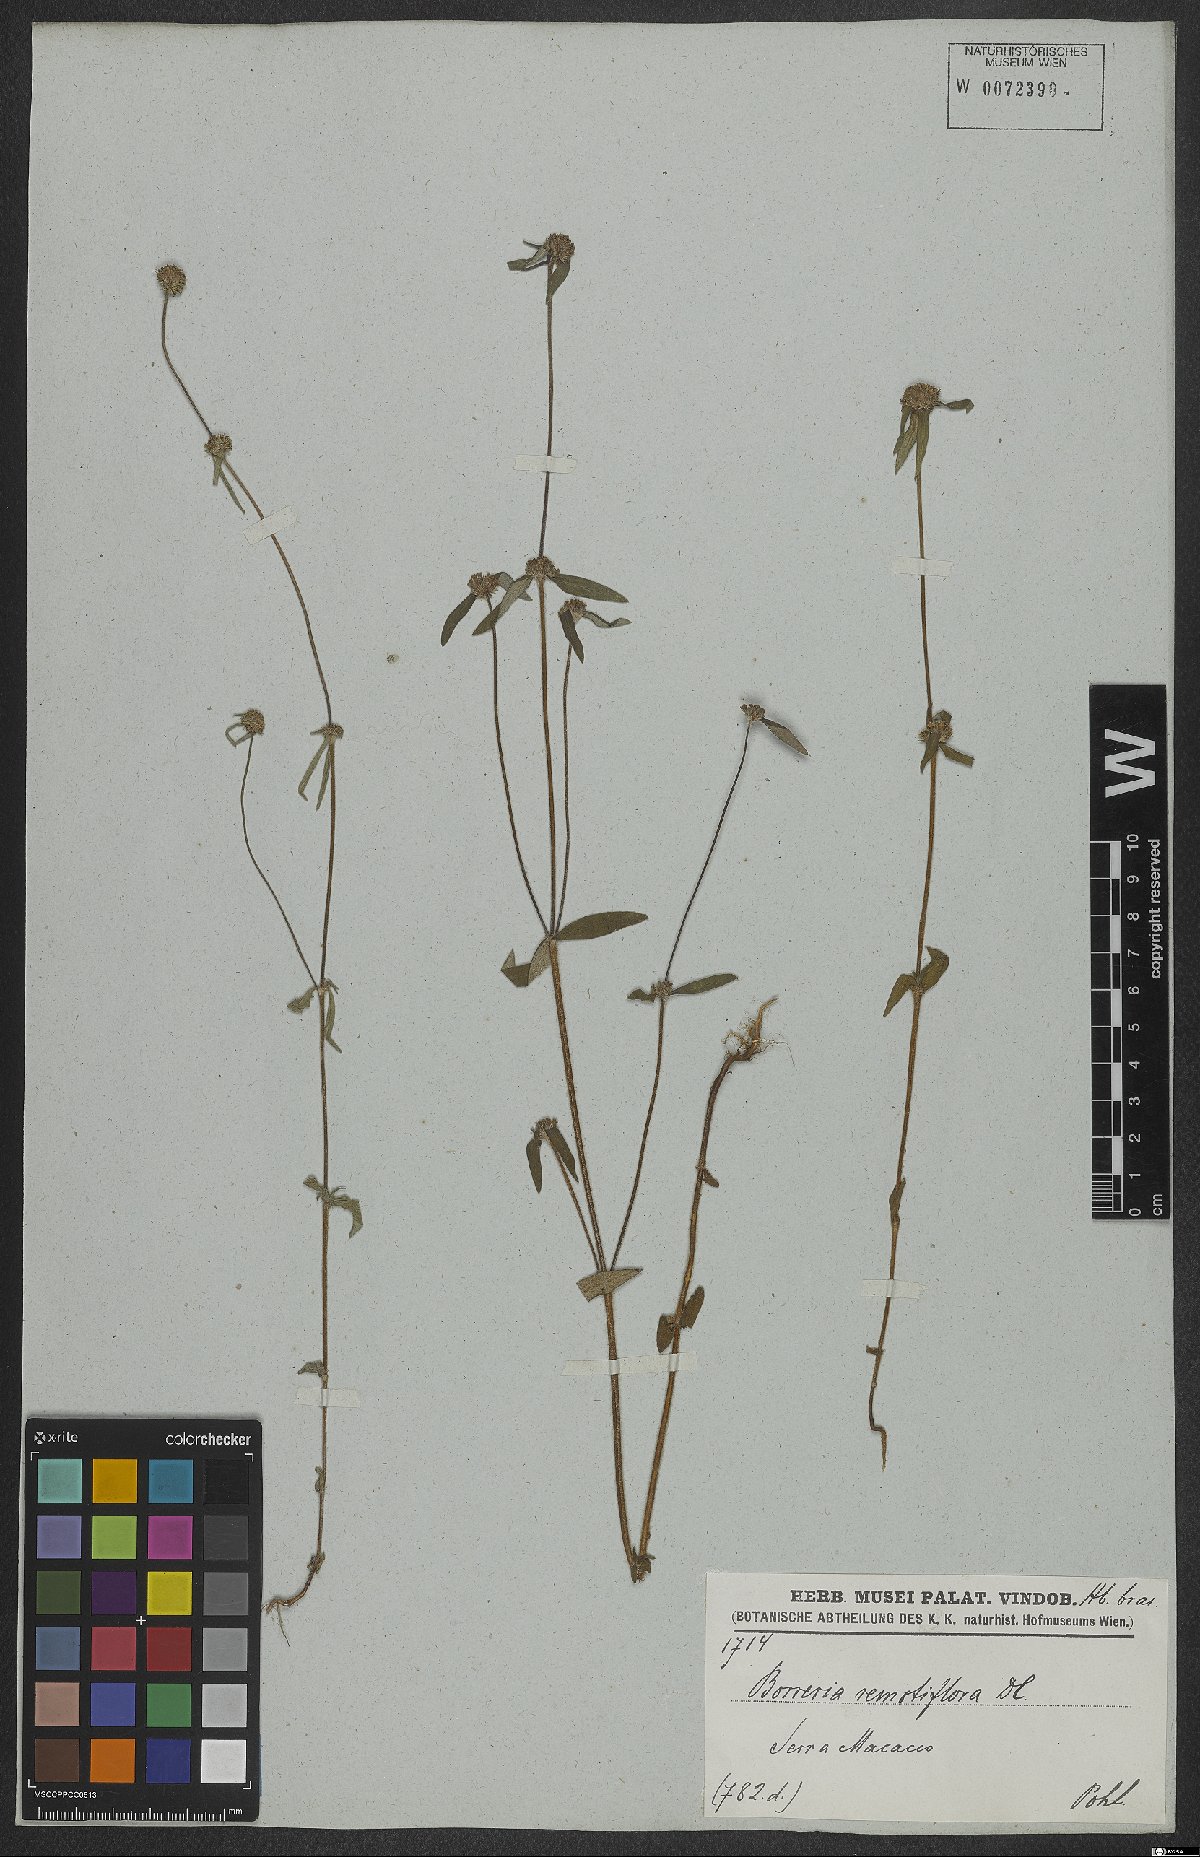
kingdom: Plantae
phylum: Tracheophyta
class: Magnoliopsida
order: Gentianales
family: Rubiaceae
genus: Mitracarpus
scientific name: Mitracarpus hirtus
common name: Tropical girdlepod
